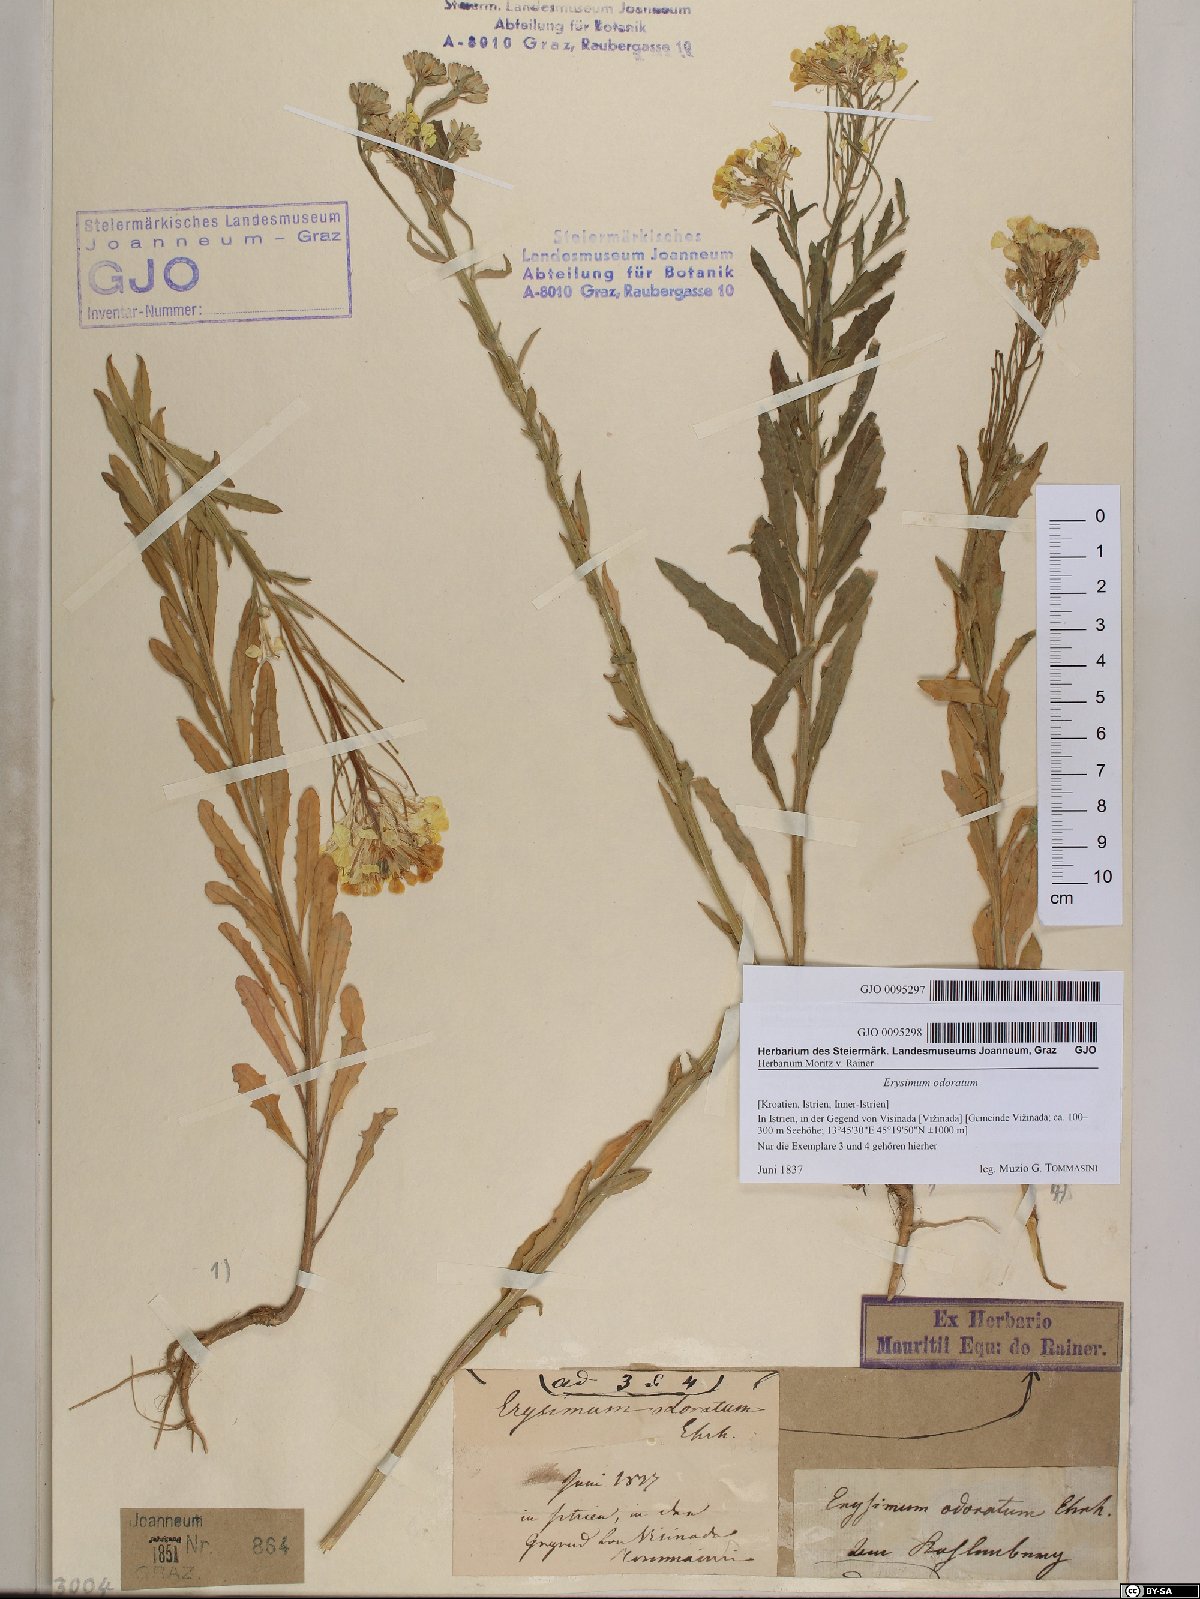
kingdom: Plantae
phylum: Tracheophyta
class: Magnoliopsida
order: Brassicales
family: Brassicaceae
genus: Erysimum
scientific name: Erysimum odoratum
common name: Smelly wallflower
